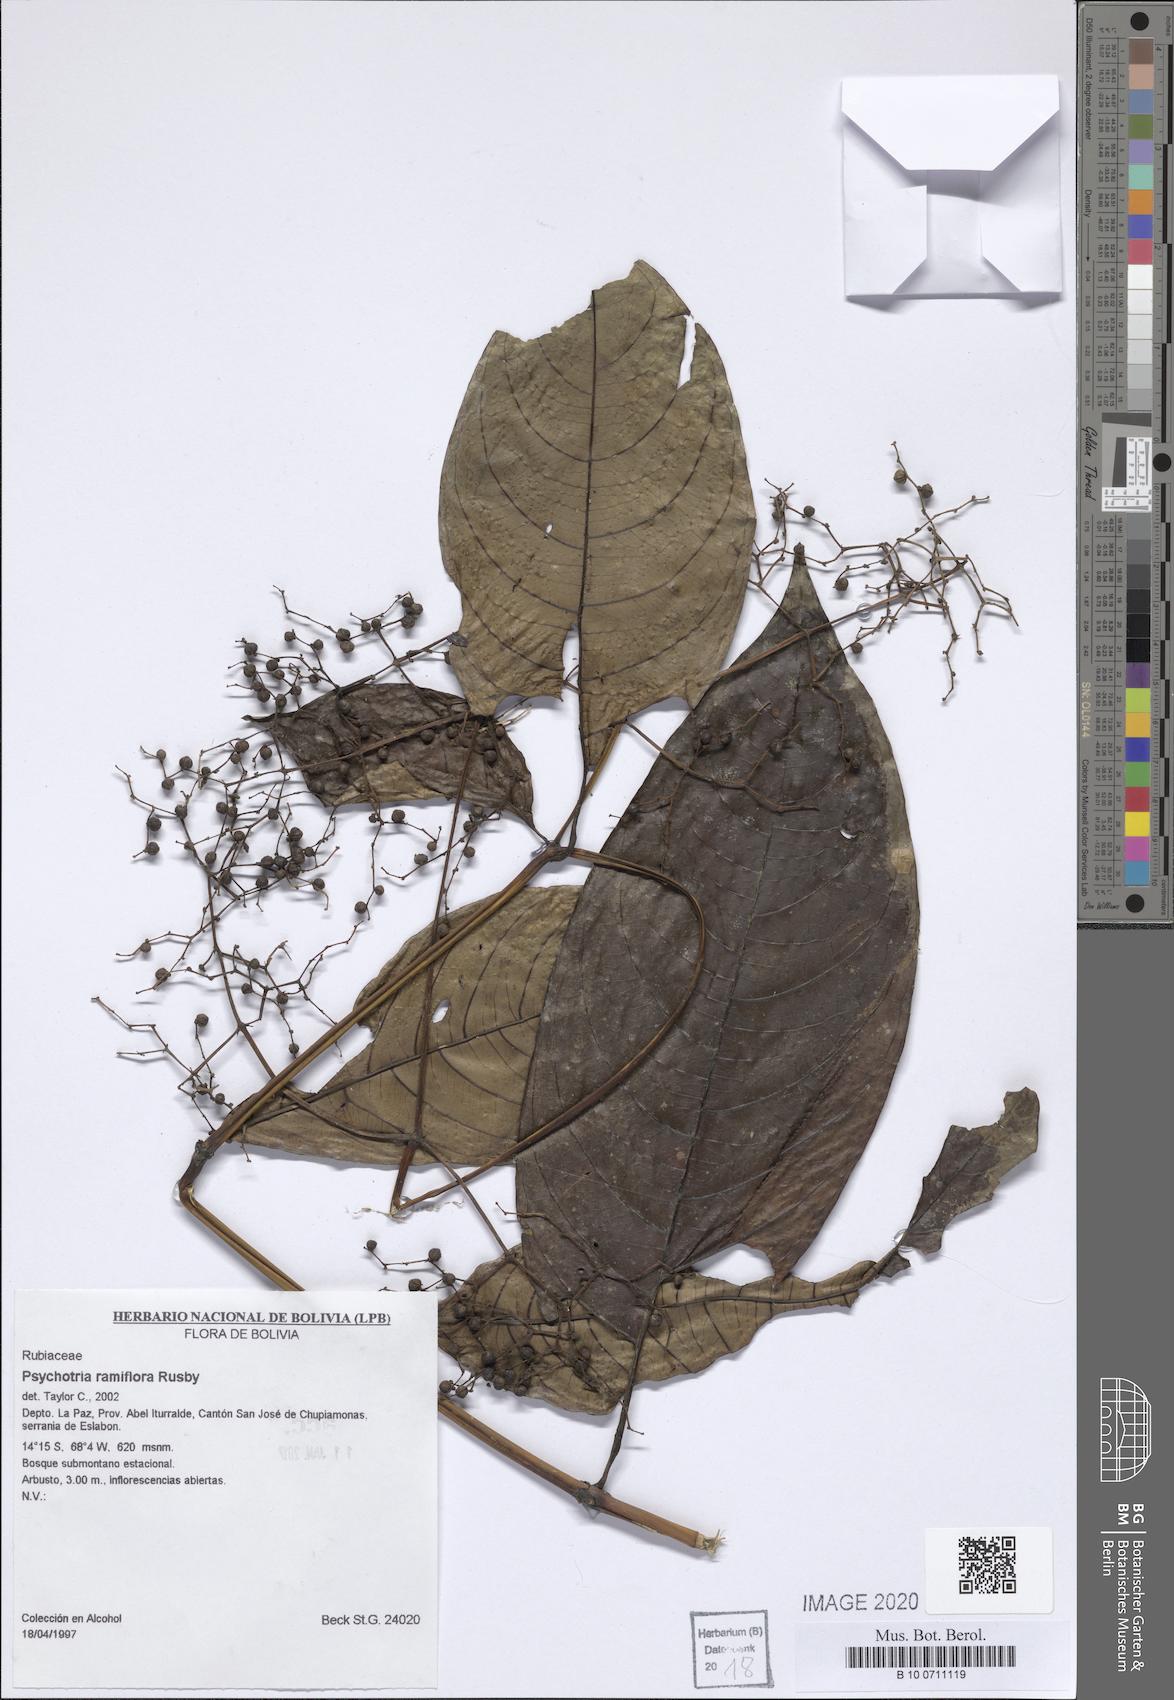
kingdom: Plantae
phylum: Tracheophyta
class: Magnoliopsida
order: Gentianales
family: Rubiaceae
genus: Palicourea
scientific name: Palicourea ramiflora
